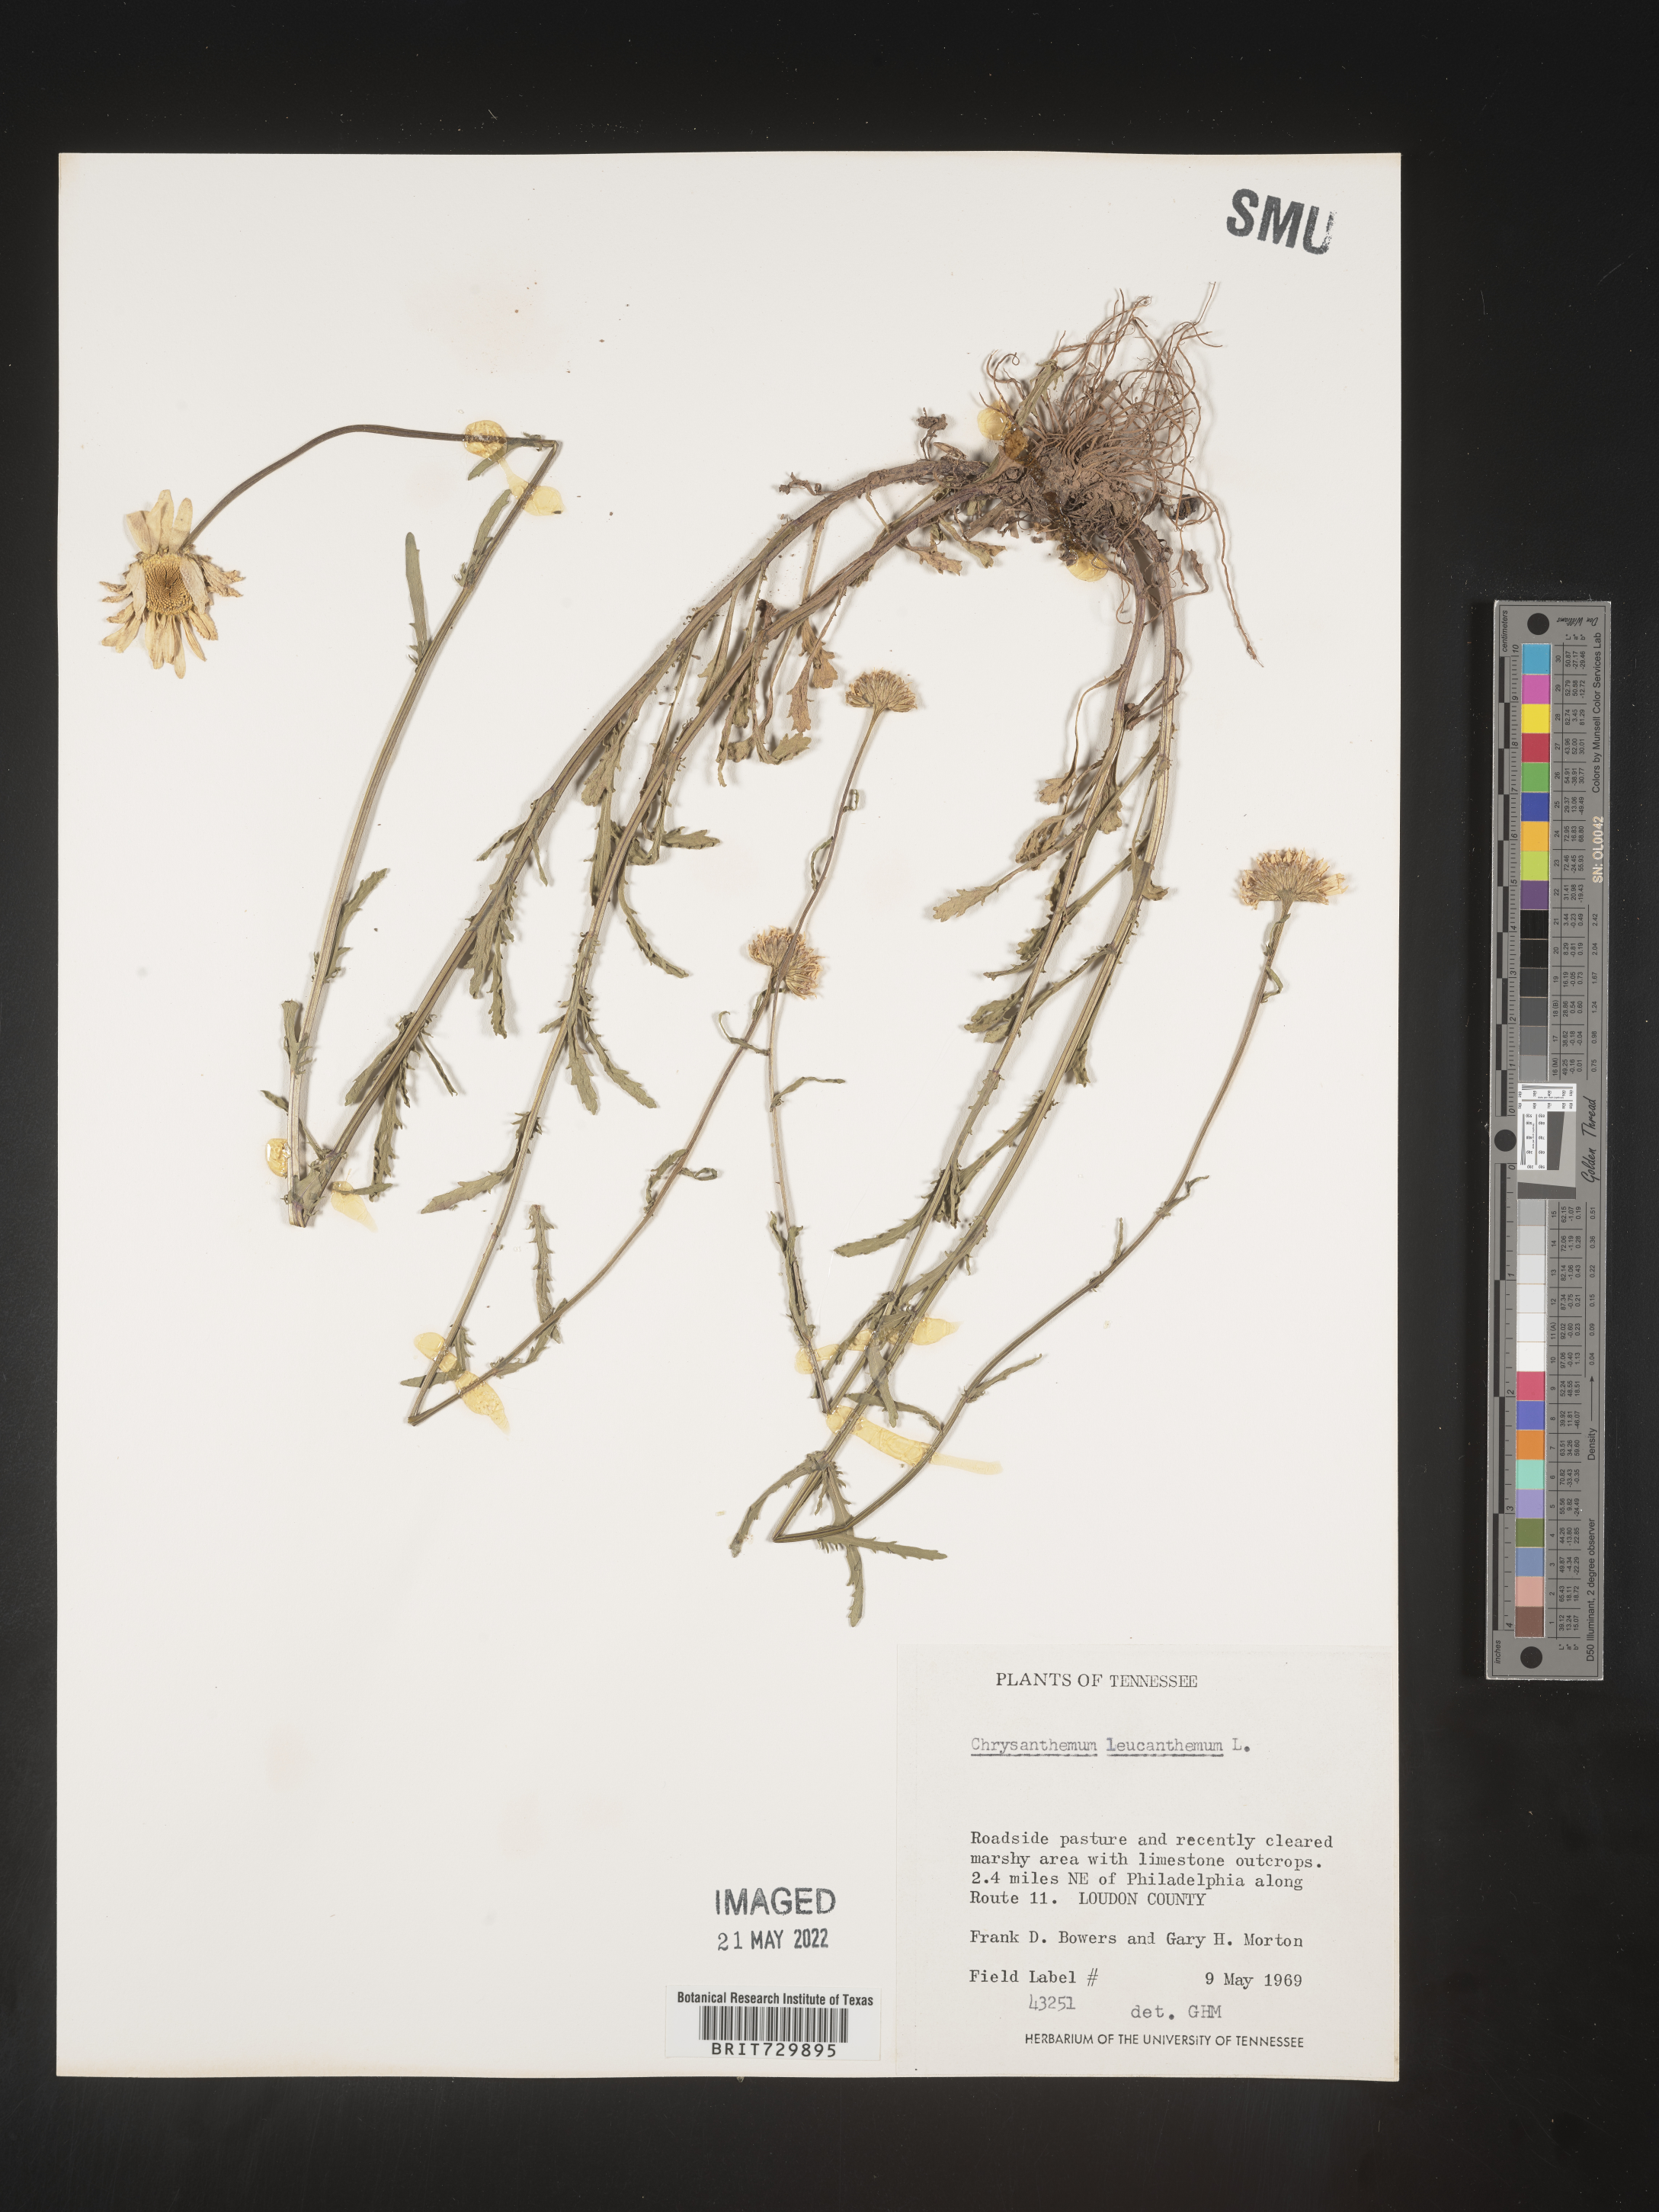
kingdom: Plantae
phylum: Tracheophyta
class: Magnoliopsida
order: Asterales
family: Asteraceae
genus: Leucanthemum
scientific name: Leucanthemum vulgare
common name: Oxeye daisy
